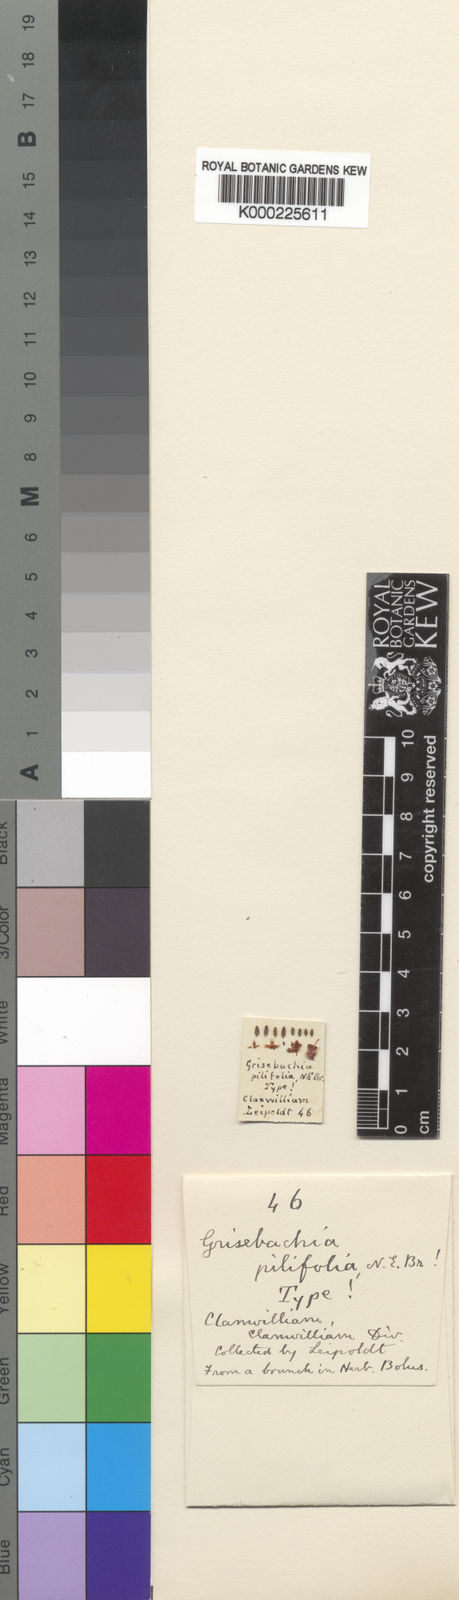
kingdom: Plantae
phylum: Tracheophyta
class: Magnoliopsida
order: Ericales
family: Ericaceae
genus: Erica
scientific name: Erica plumosa
